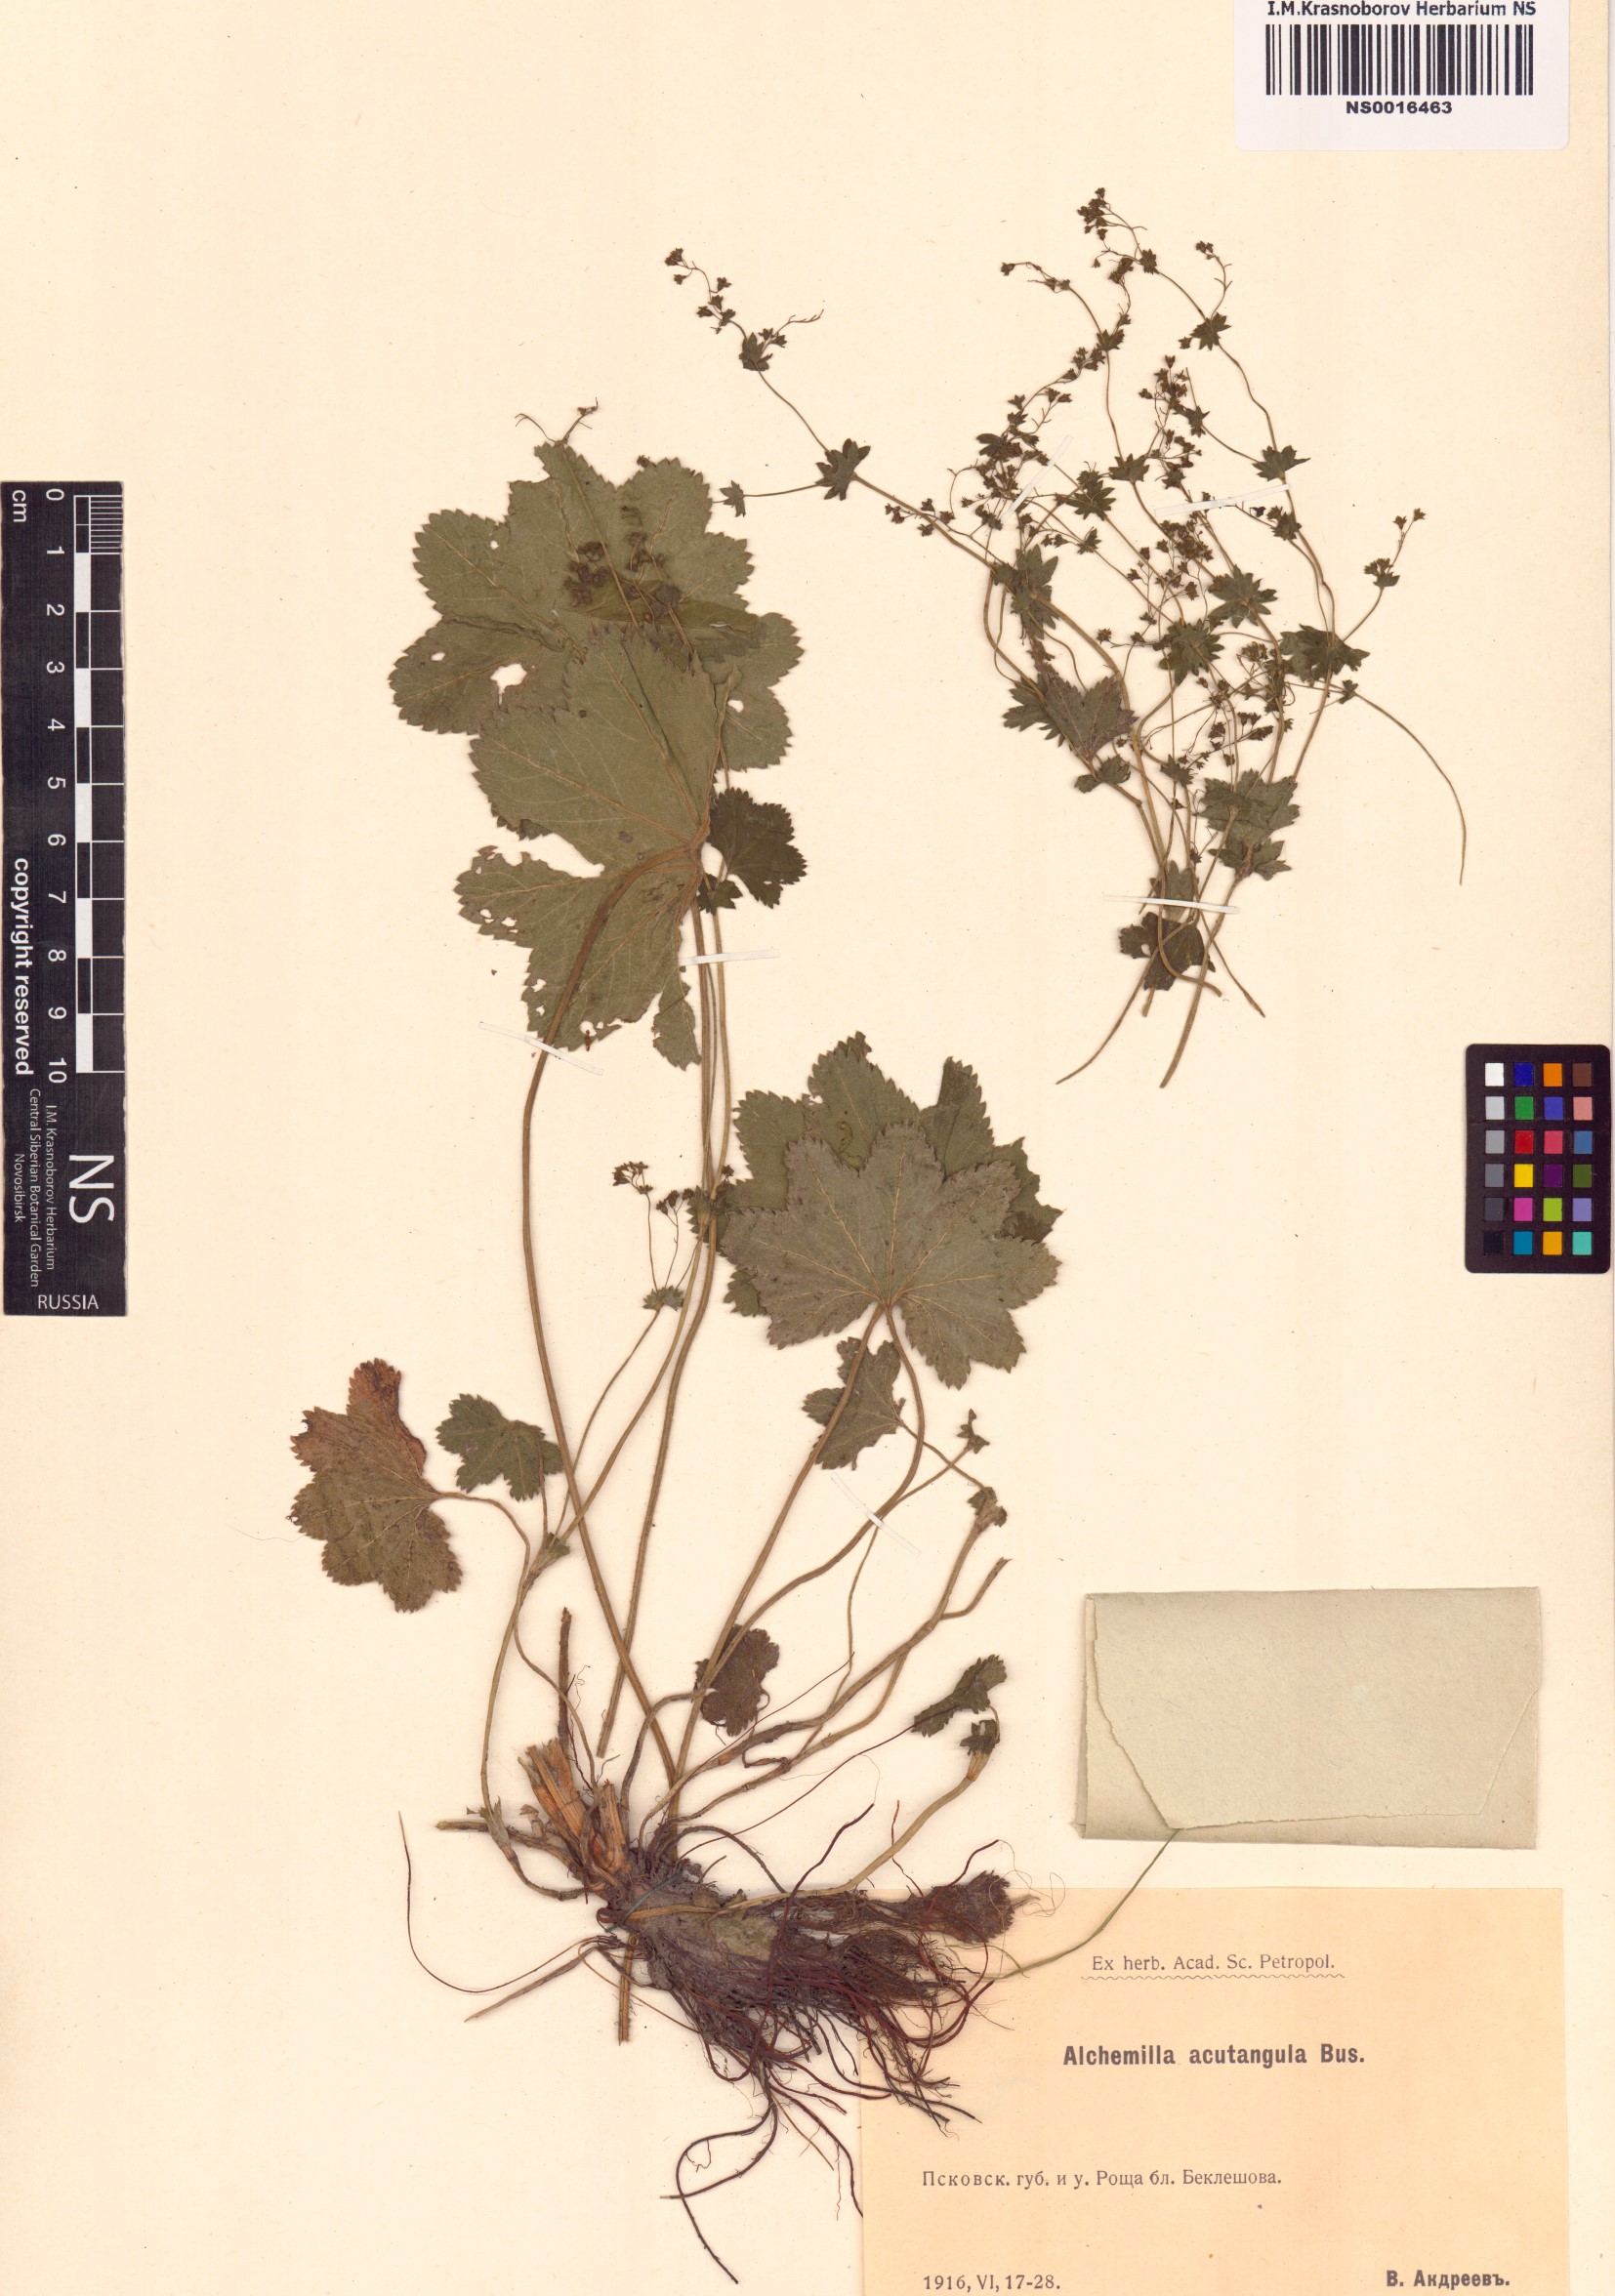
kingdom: Plantae
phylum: Tracheophyta
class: Magnoliopsida
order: Rosales
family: Rosaceae
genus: Alchemilla
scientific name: Alchemilla vulgaris
